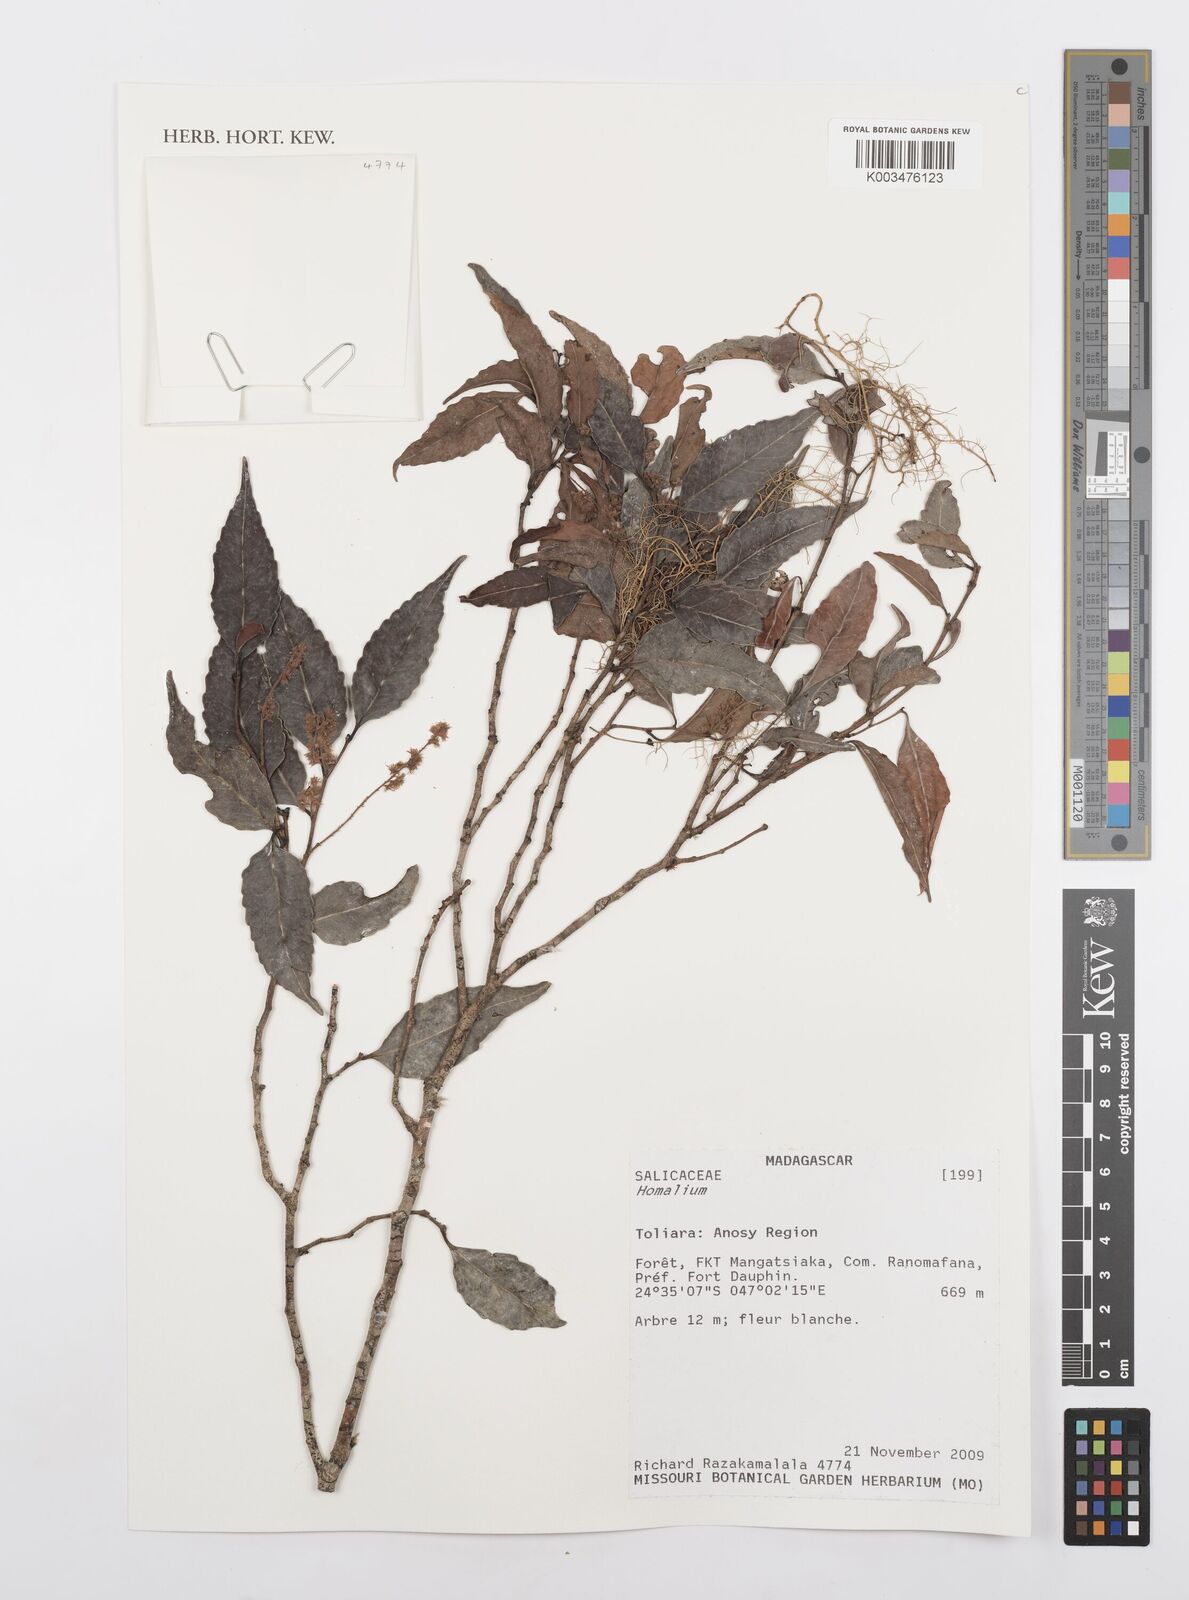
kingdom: Plantae
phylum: Tracheophyta
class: Magnoliopsida
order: Malpighiales
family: Salicaceae
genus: Homalium
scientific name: Homalium
